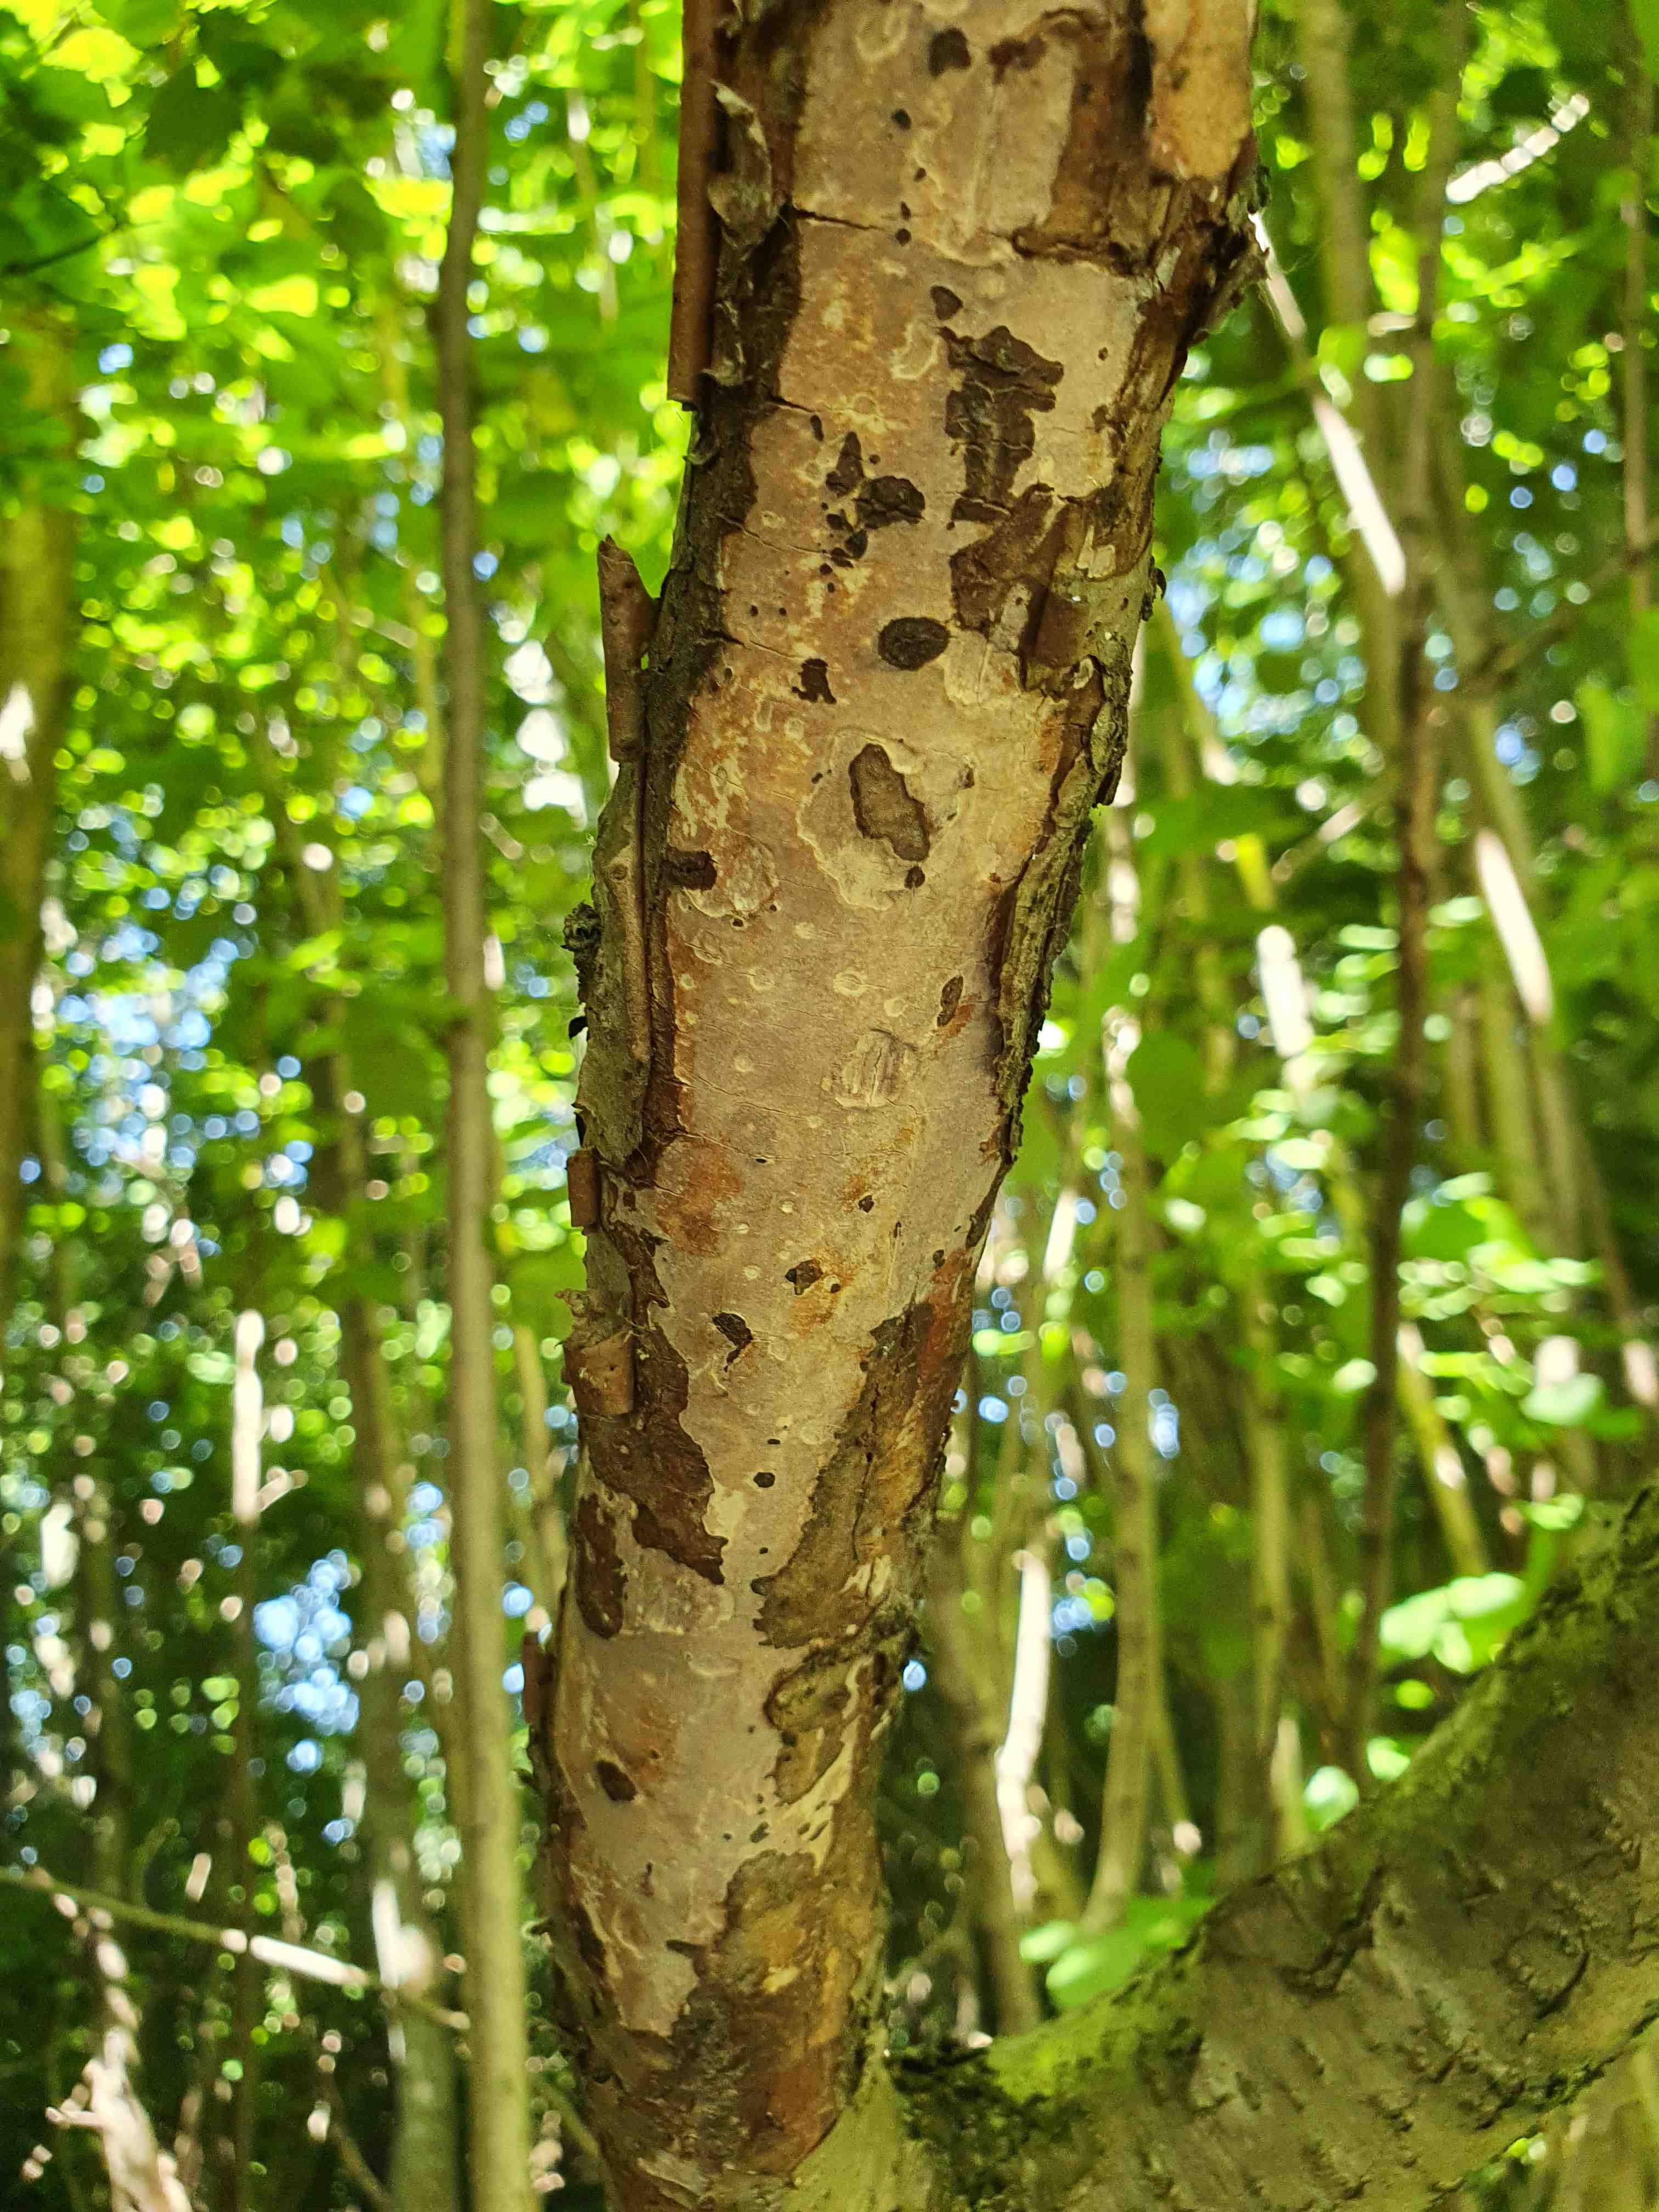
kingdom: Fungi
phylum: Basidiomycota
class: Agaricomycetes
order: Corticiales
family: Vuilleminiaceae
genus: Vuilleminia
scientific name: Vuilleminia coryli
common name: hassel-barksprænger
